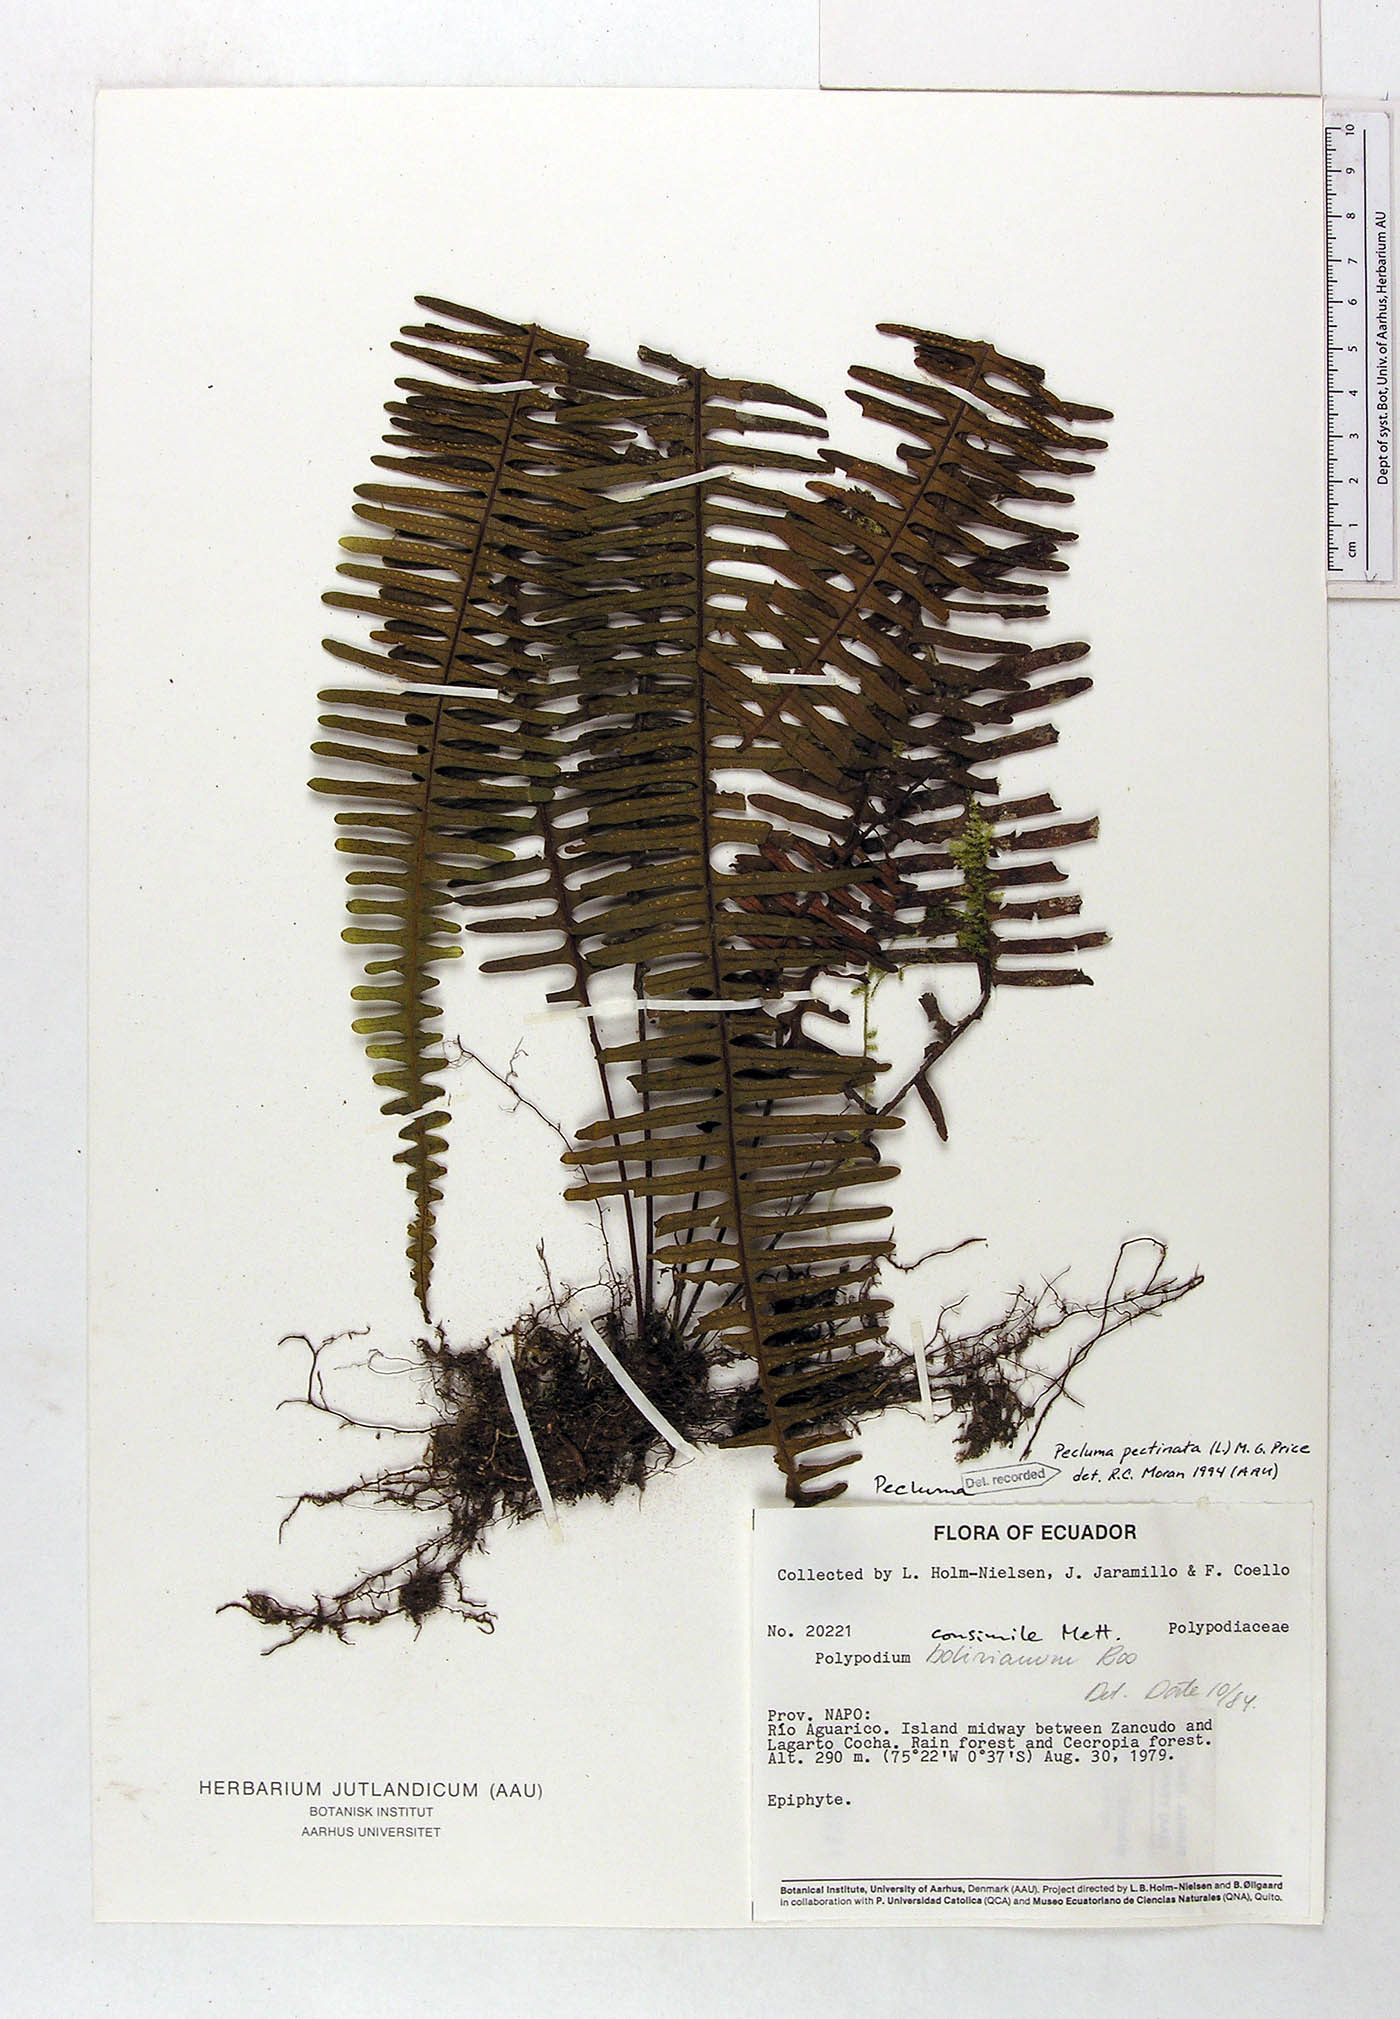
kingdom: Plantae
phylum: Tracheophyta
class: Polypodiopsida
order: Polypodiales
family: Polypodiaceae
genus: Pecluma
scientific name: Pecluma pectinata
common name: Msasa fern
